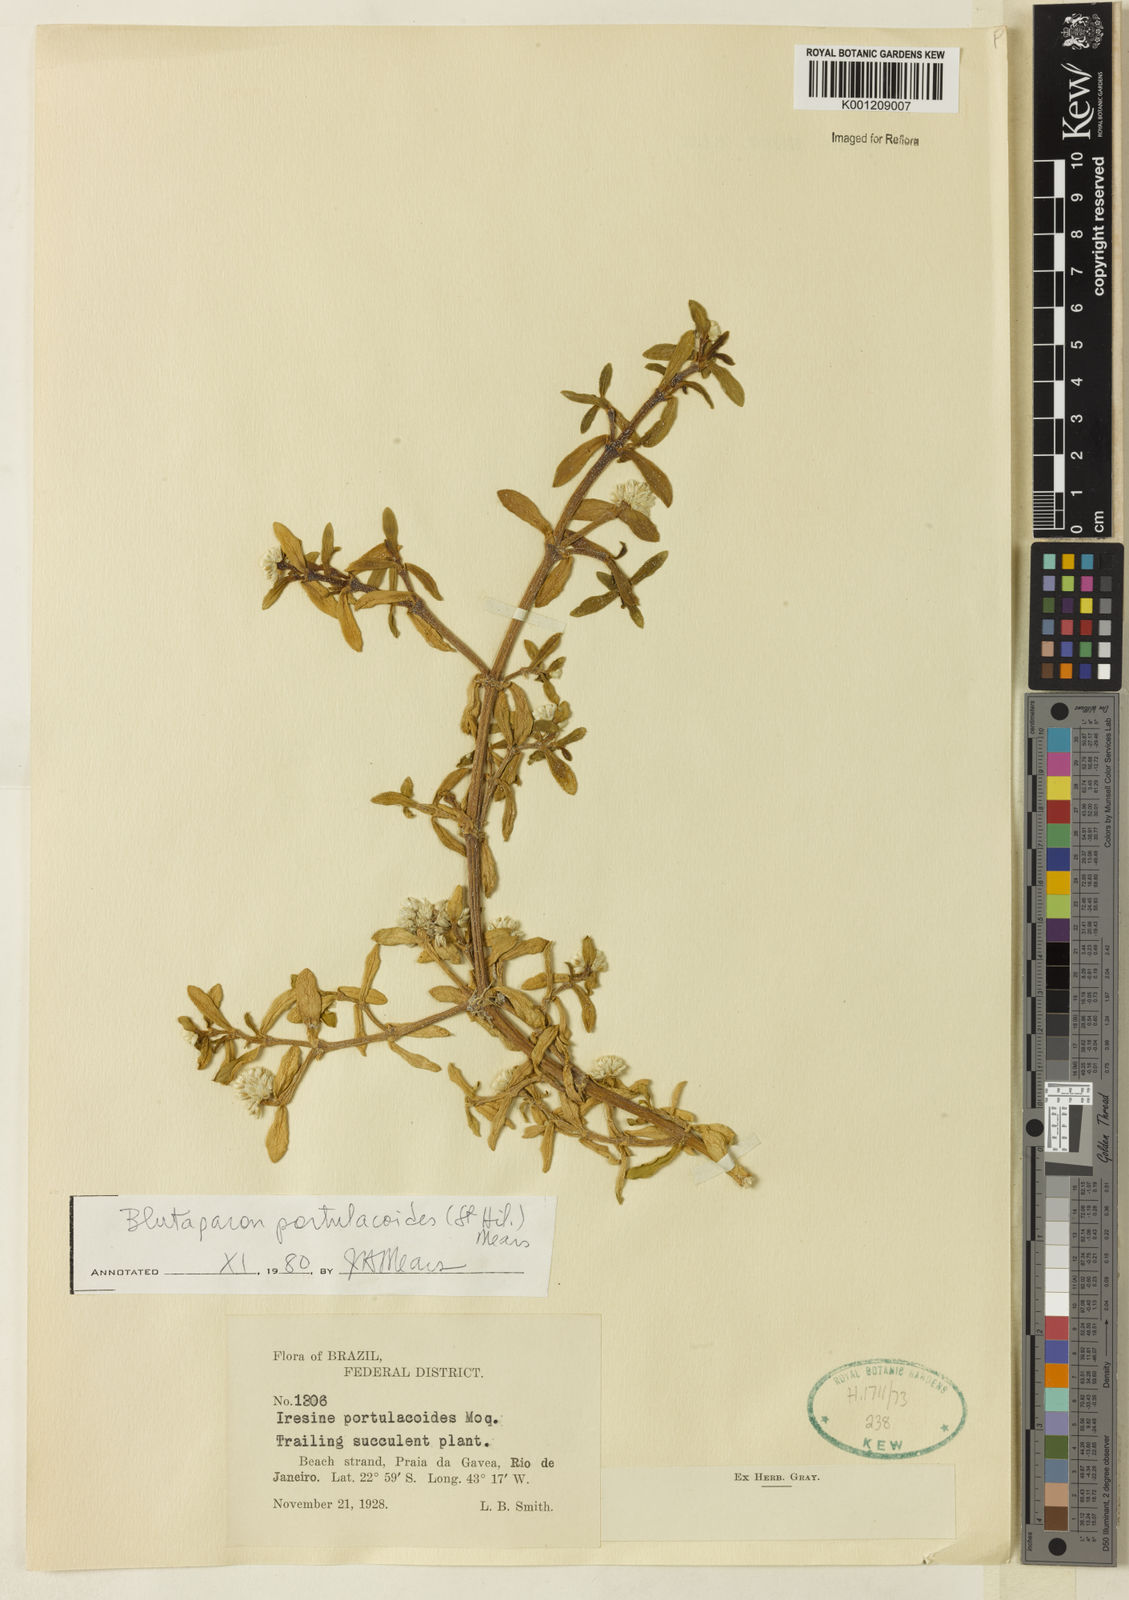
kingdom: Plantae
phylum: Tracheophyta
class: Magnoliopsida
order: Caryophyllales
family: Amaranthaceae
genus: Gomphrena
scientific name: Gomphrena portulacoides
